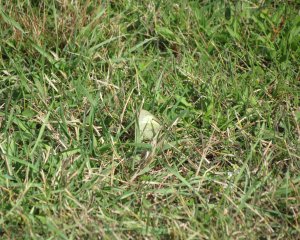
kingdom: Animalia
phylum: Arthropoda
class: Insecta
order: Lepidoptera
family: Pieridae
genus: Colias
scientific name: Colias philodice
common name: Clouded Sulphur
